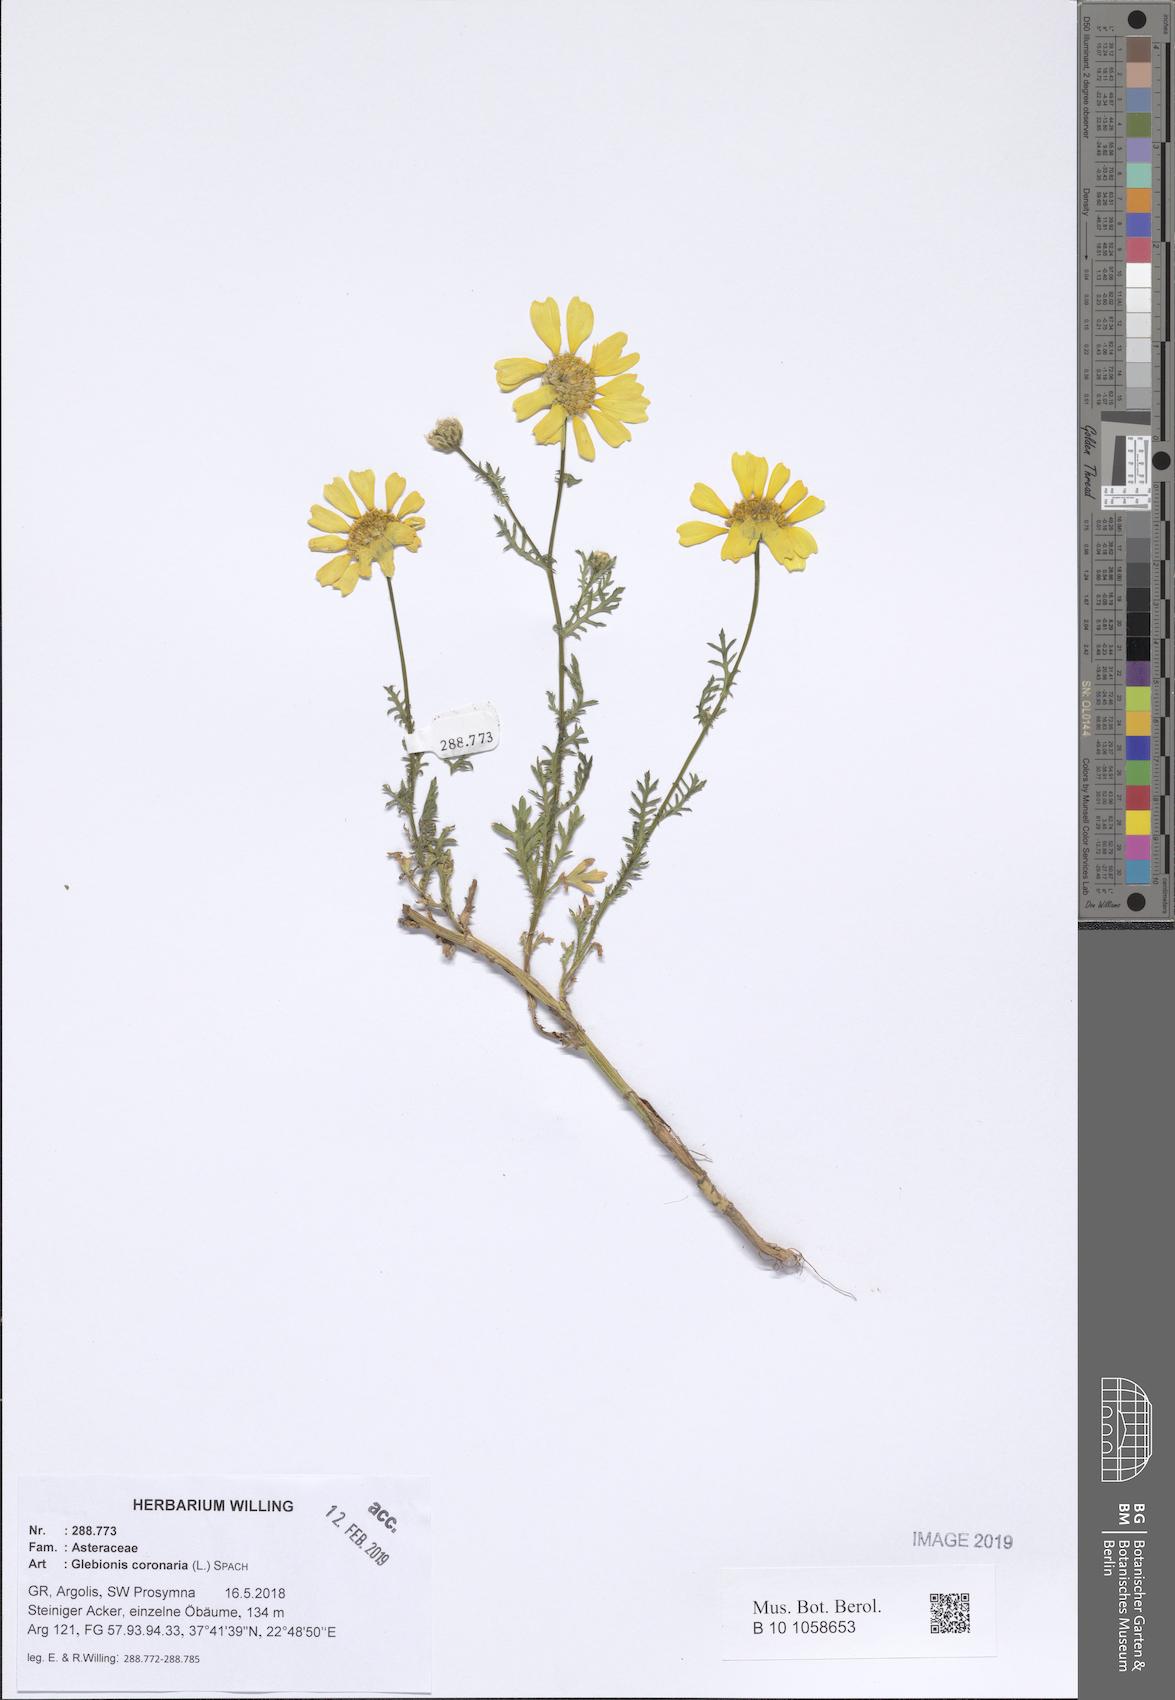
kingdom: Plantae
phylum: Tracheophyta
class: Magnoliopsida
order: Asterales
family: Asteraceae
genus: Glebionis
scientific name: Glebionis coronaria
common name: Crowndaisy
